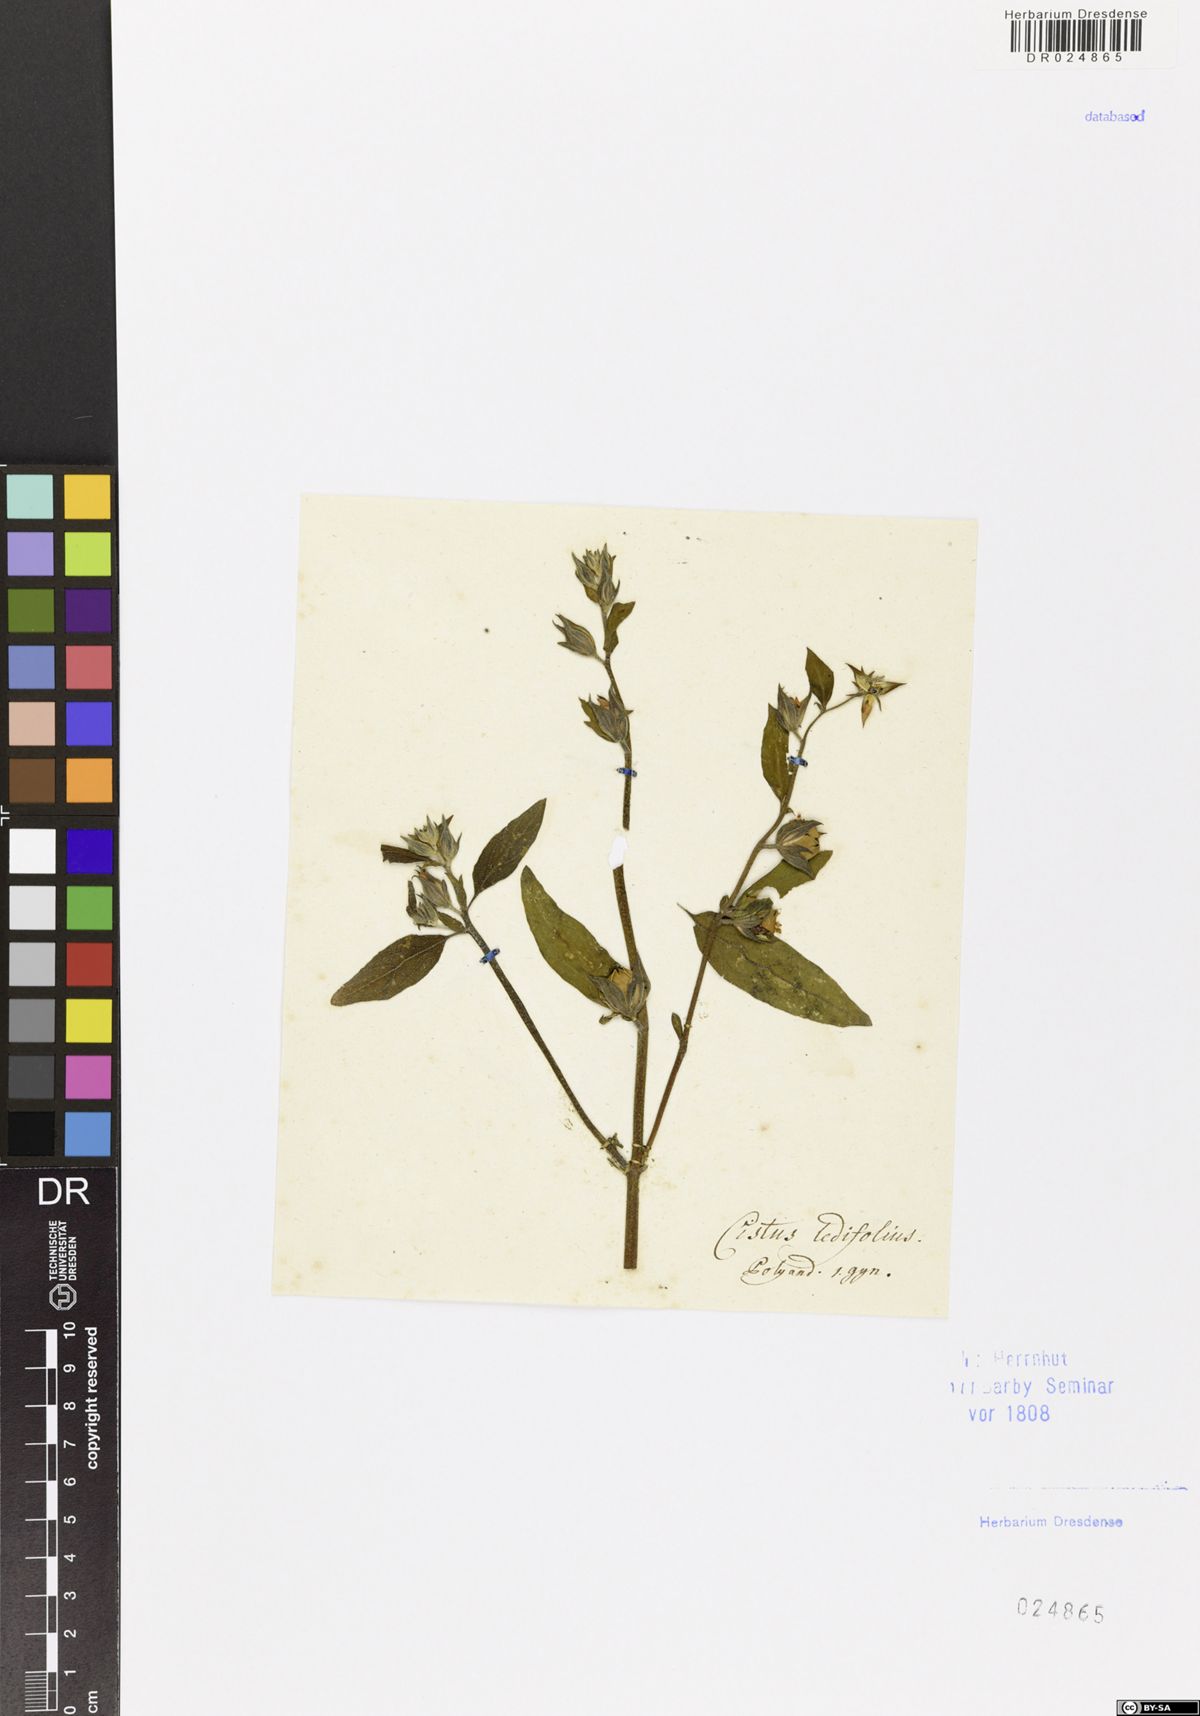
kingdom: Plantae
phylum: Tracheophyta
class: Magnoliopsida
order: Malvales
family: Cistaceae
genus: Helianthemum
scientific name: Helianthemum sanguineum
